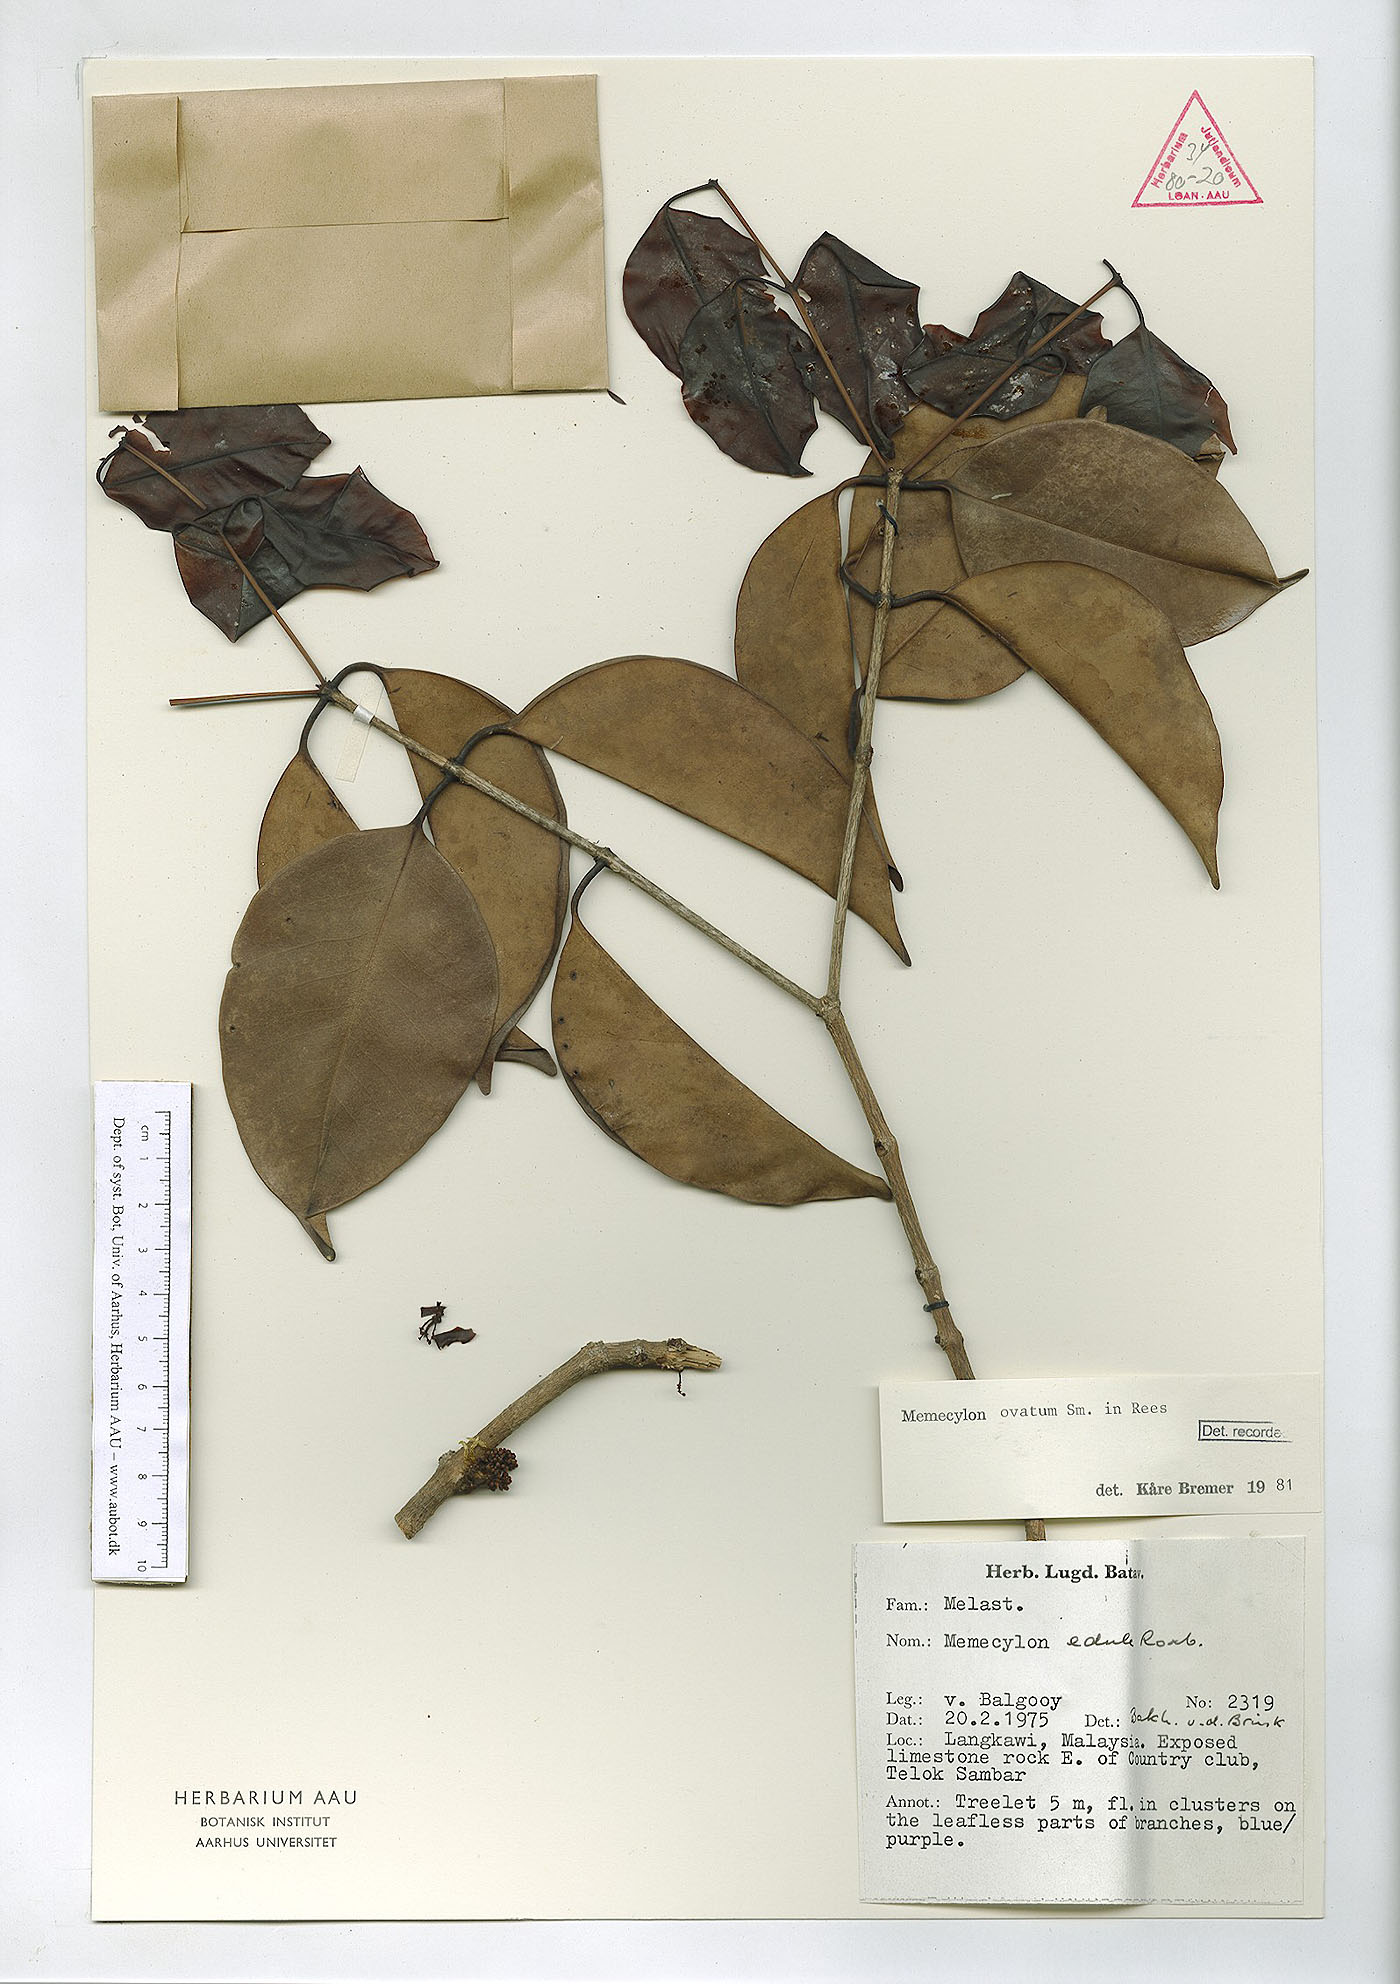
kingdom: Plantae
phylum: Tracheophyta
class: Magnoliopsida
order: Myrtales
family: Melastomataceae
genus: Memecylon
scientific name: Memecylon ovatum
